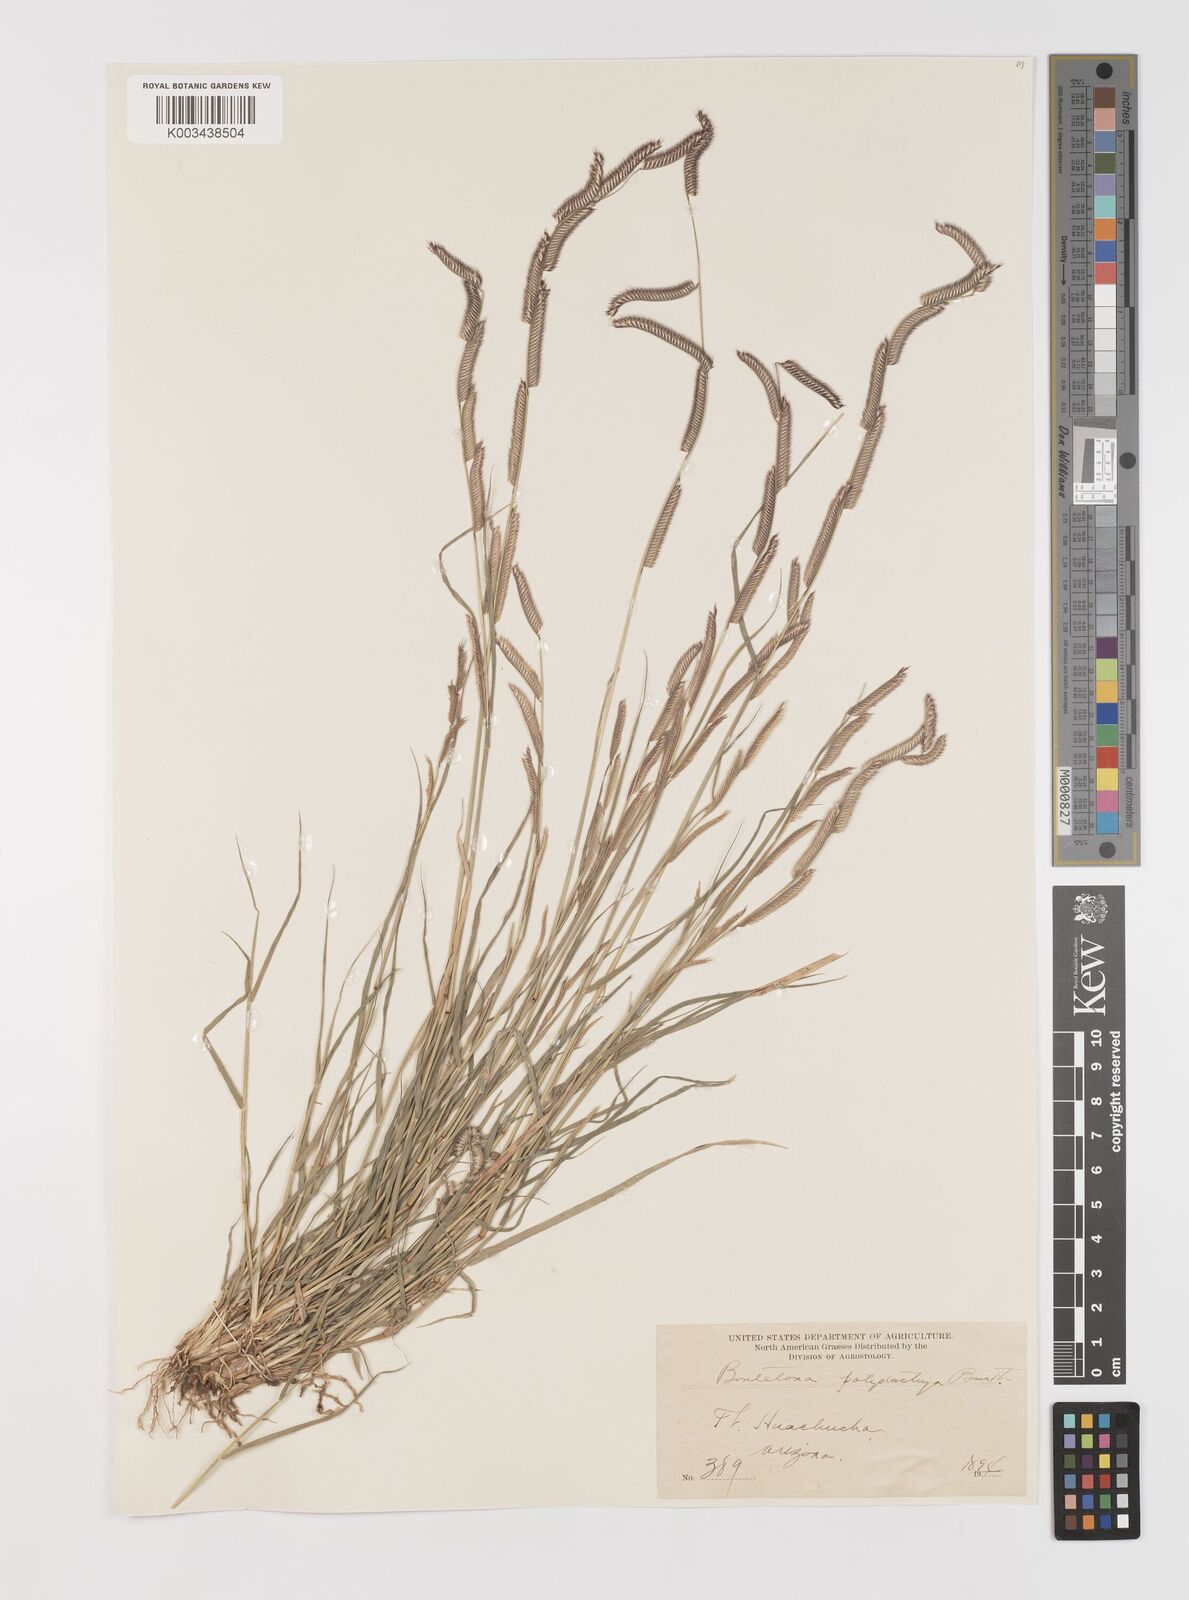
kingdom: Plantae
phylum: Tracheophyta
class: Liliopsida
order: Poales
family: Poaceae
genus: Bouteloua
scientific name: Bouteloua
